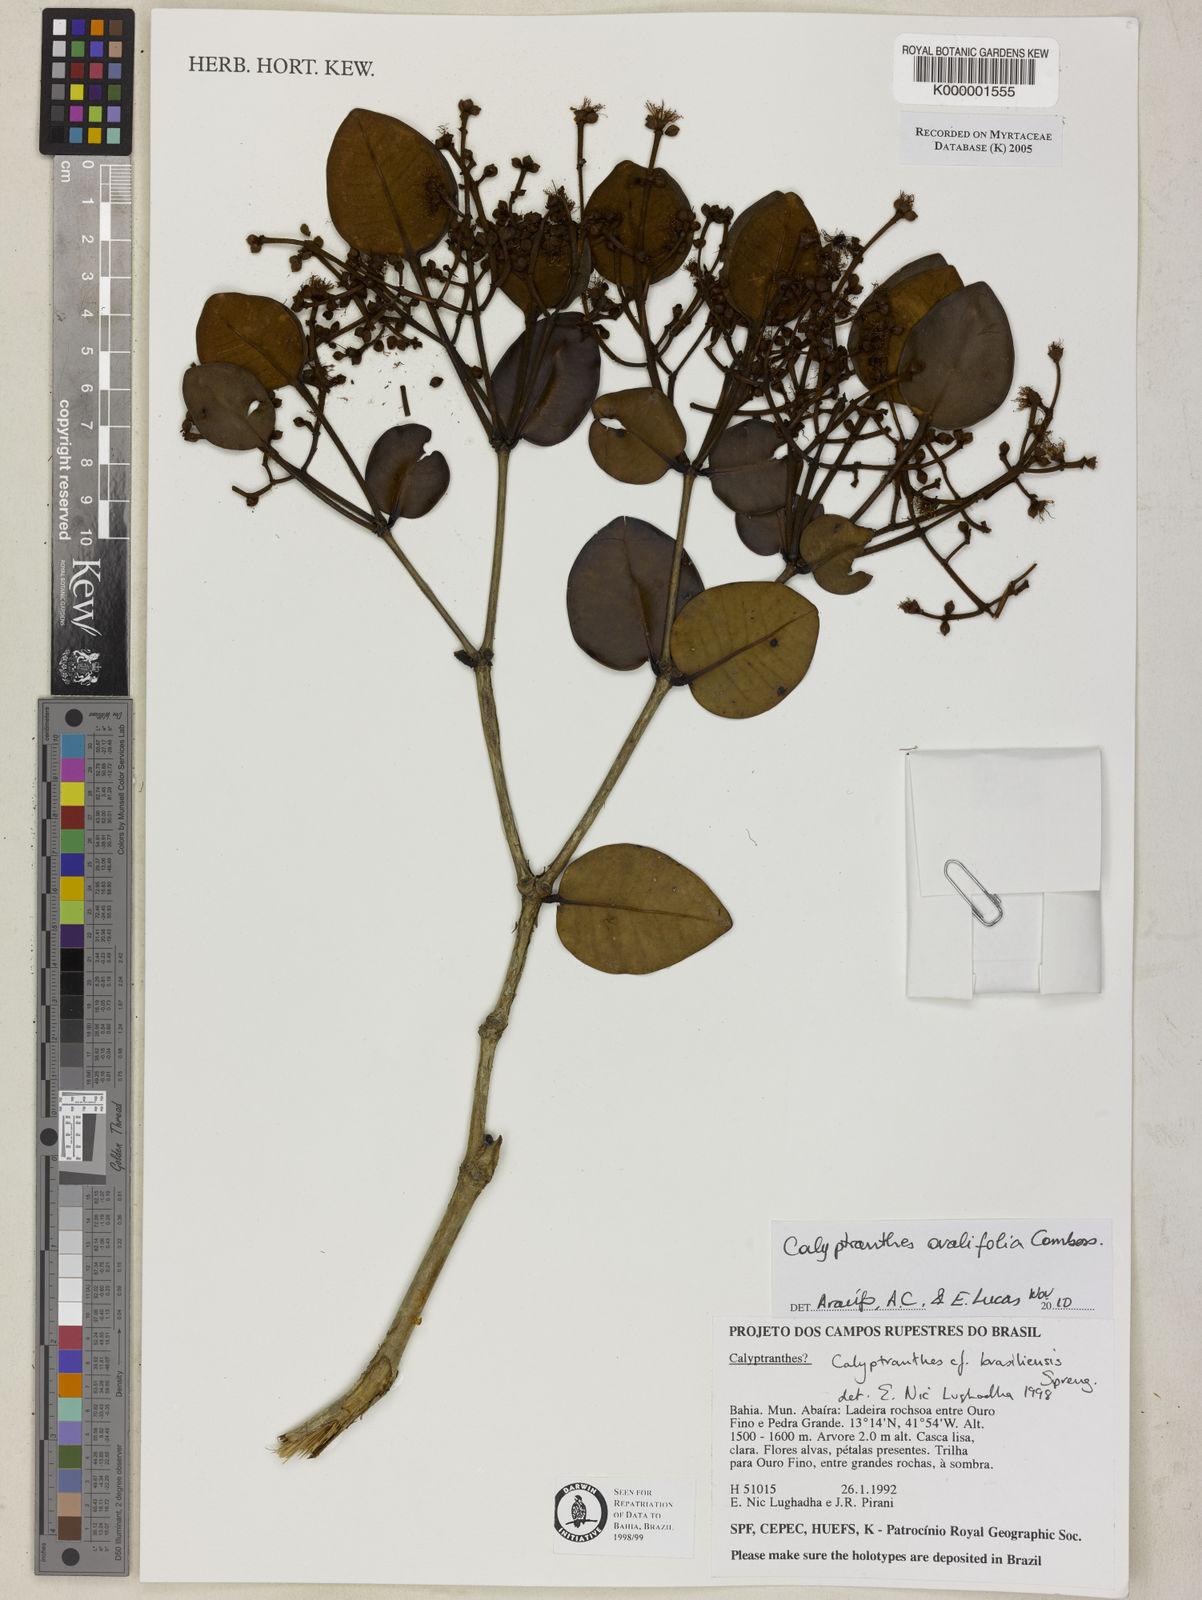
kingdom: Plantae
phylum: Tracheophyta
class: Magnoliopsida
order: Myrtales
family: Myrtaceae
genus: Myrcia
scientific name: Myrcia neobrasiliensis
